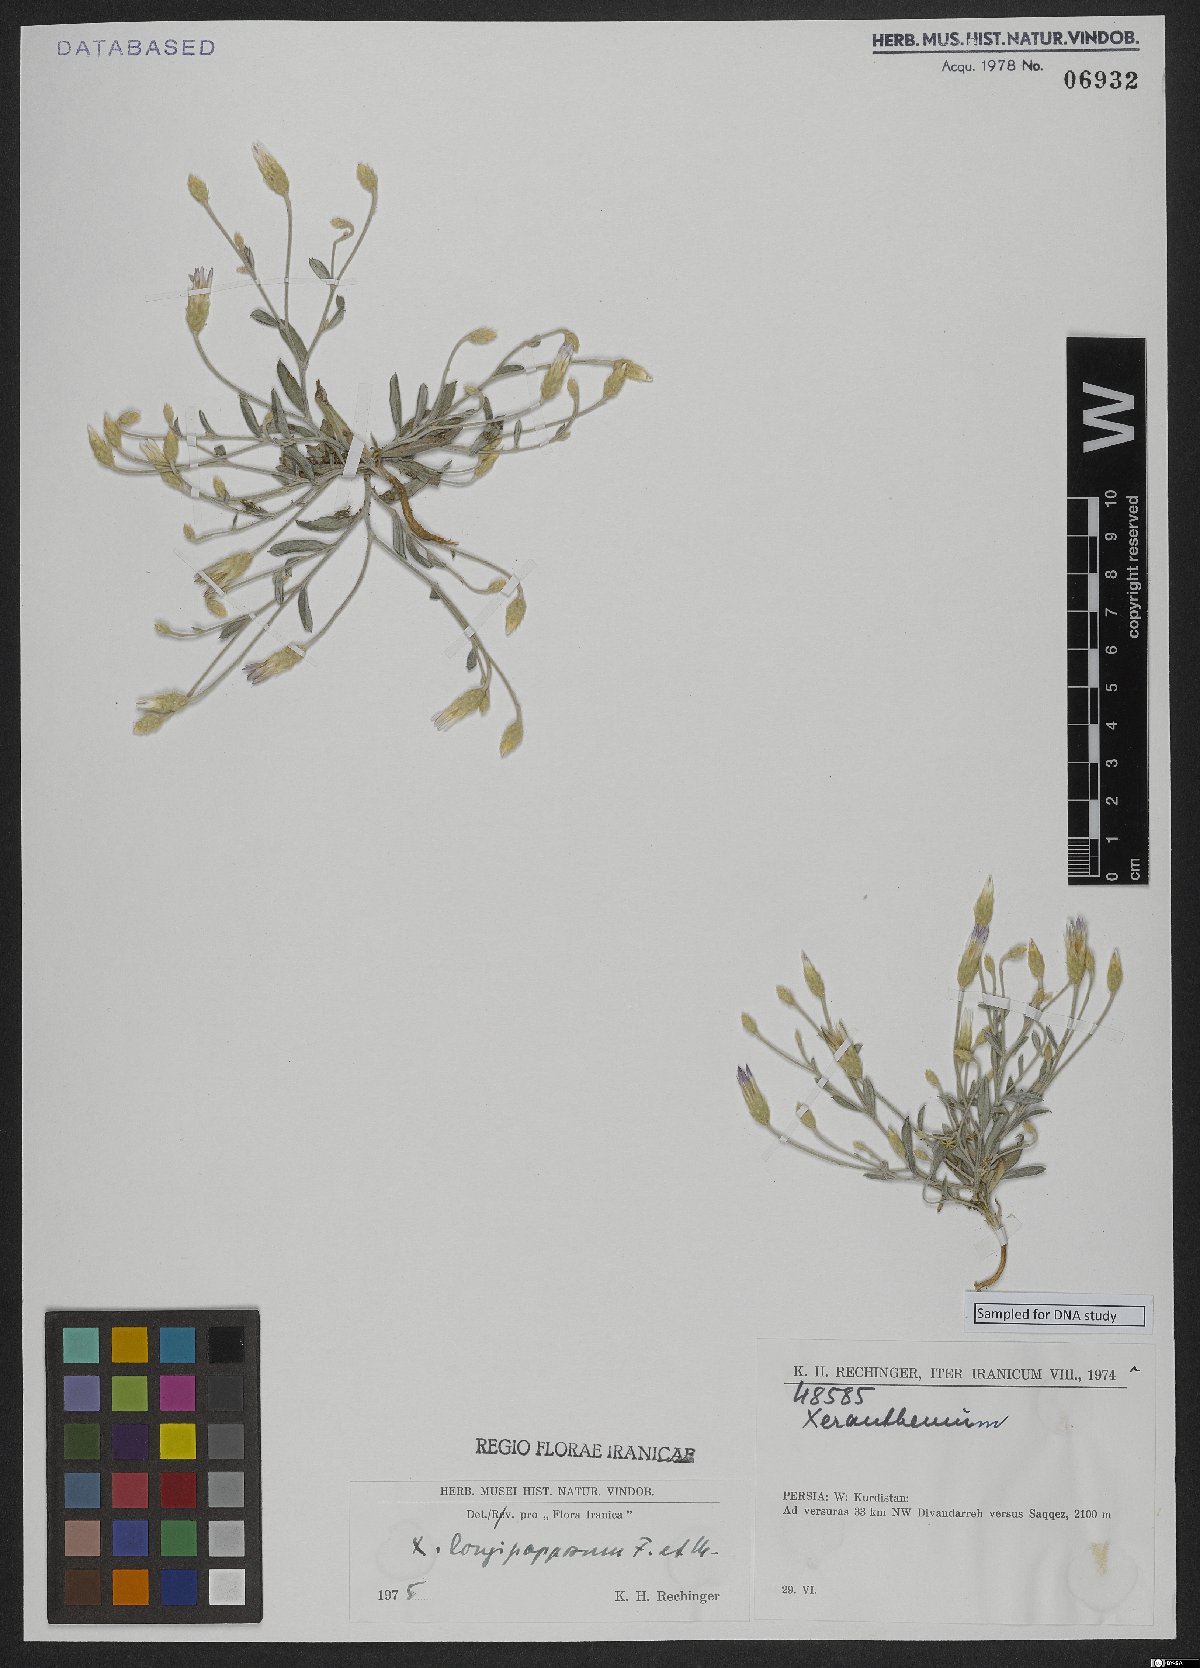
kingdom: Plantae
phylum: Tracheophyta
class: Magnoliopsida
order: Asterales
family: Asteraceae
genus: Xeranthemum
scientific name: Xeranthemum longepapposum
